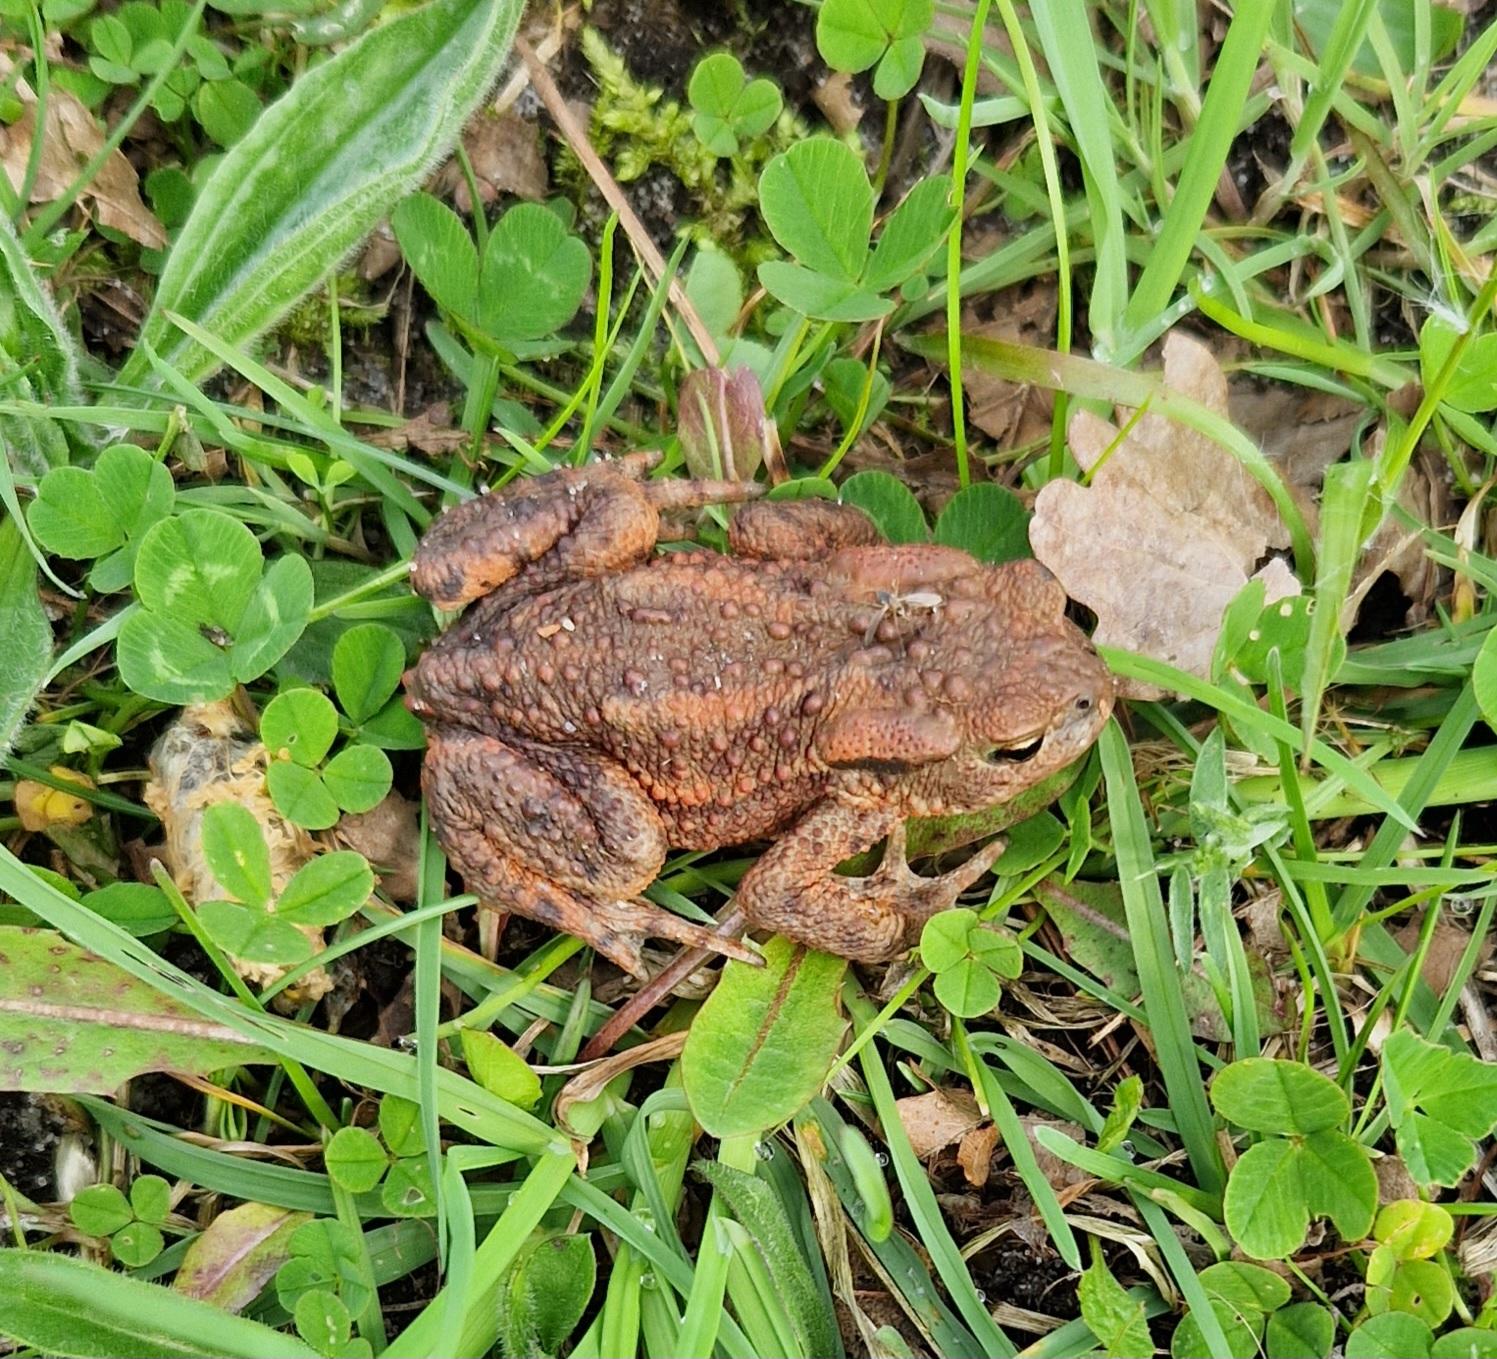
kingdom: Animalia
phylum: Chordata
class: Amphibia
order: Anura
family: Bufonidae
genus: Bufo
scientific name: Bufo bufo
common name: Skrubtudse
